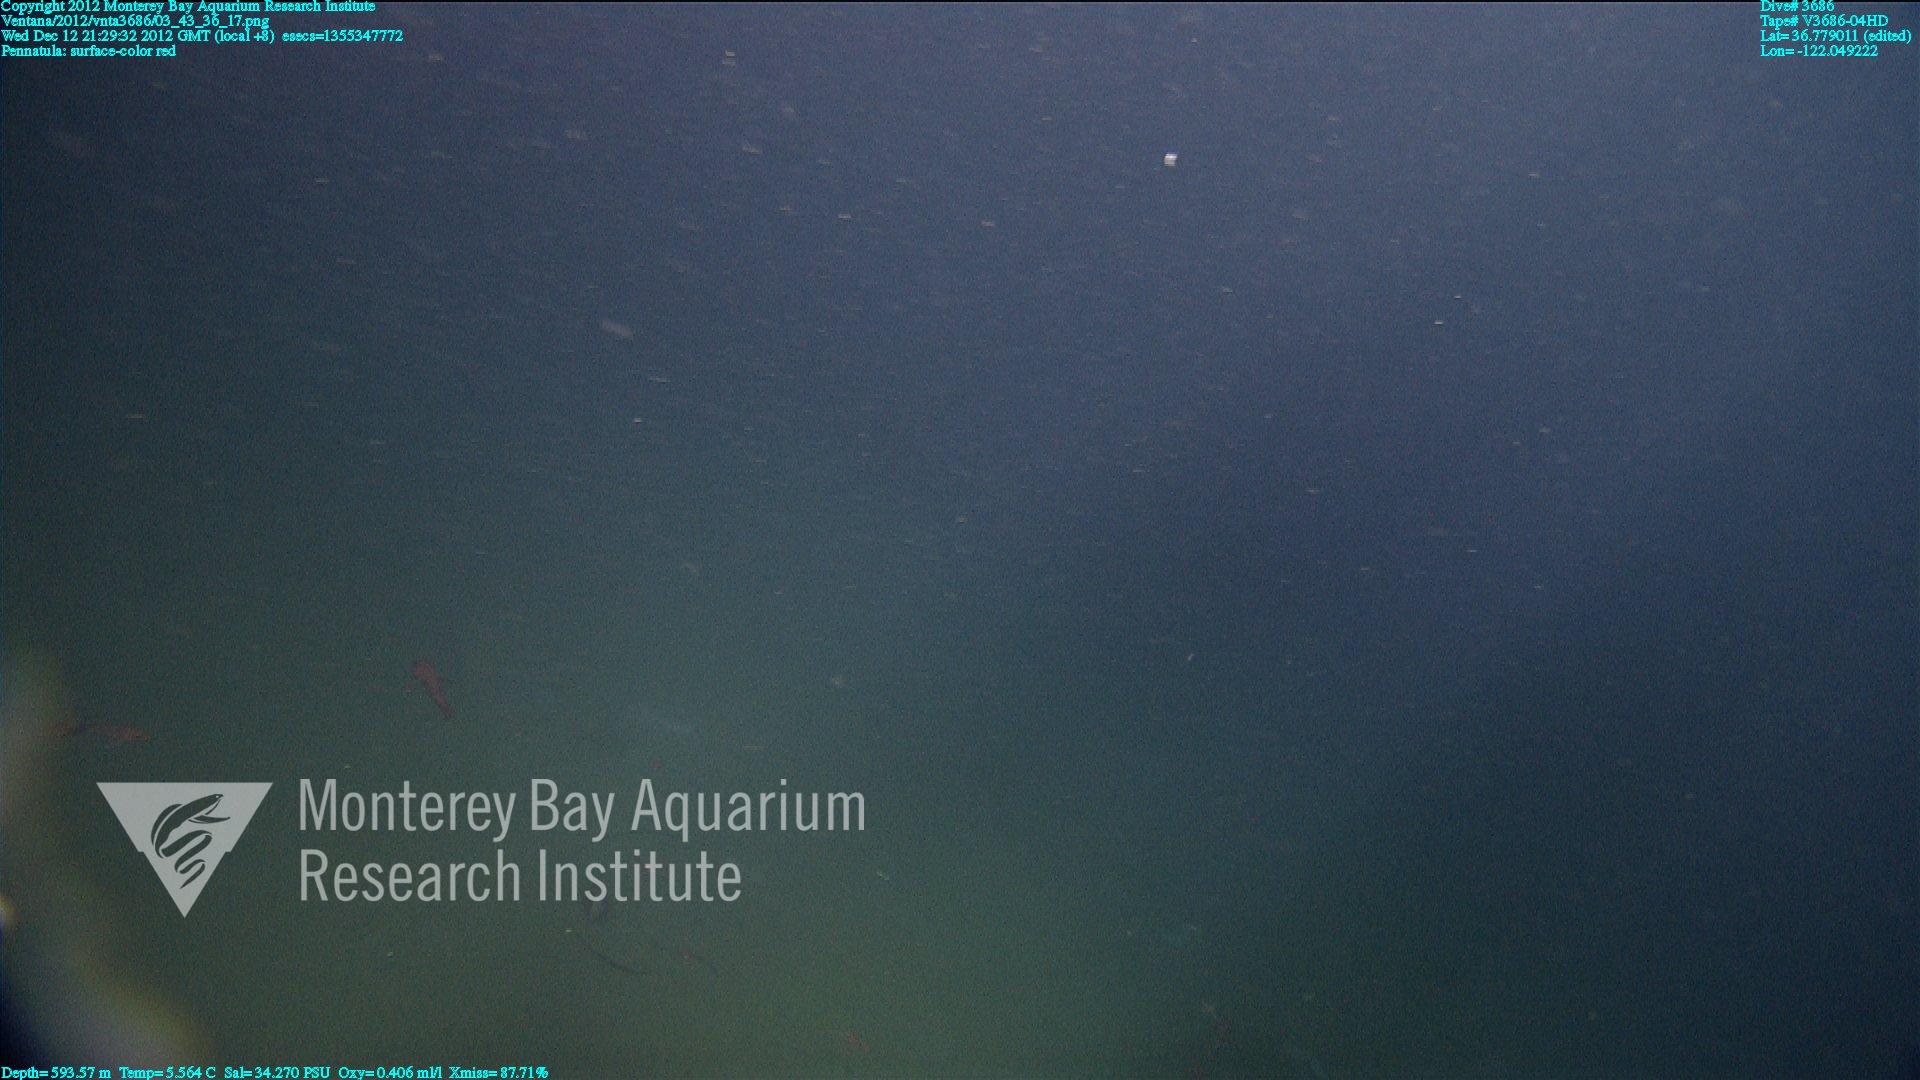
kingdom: Animalia
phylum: Cnidaria
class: Anthozoa
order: Scleralcyonacea
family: Pennatulidae
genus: Pennatula
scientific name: Pennatula
